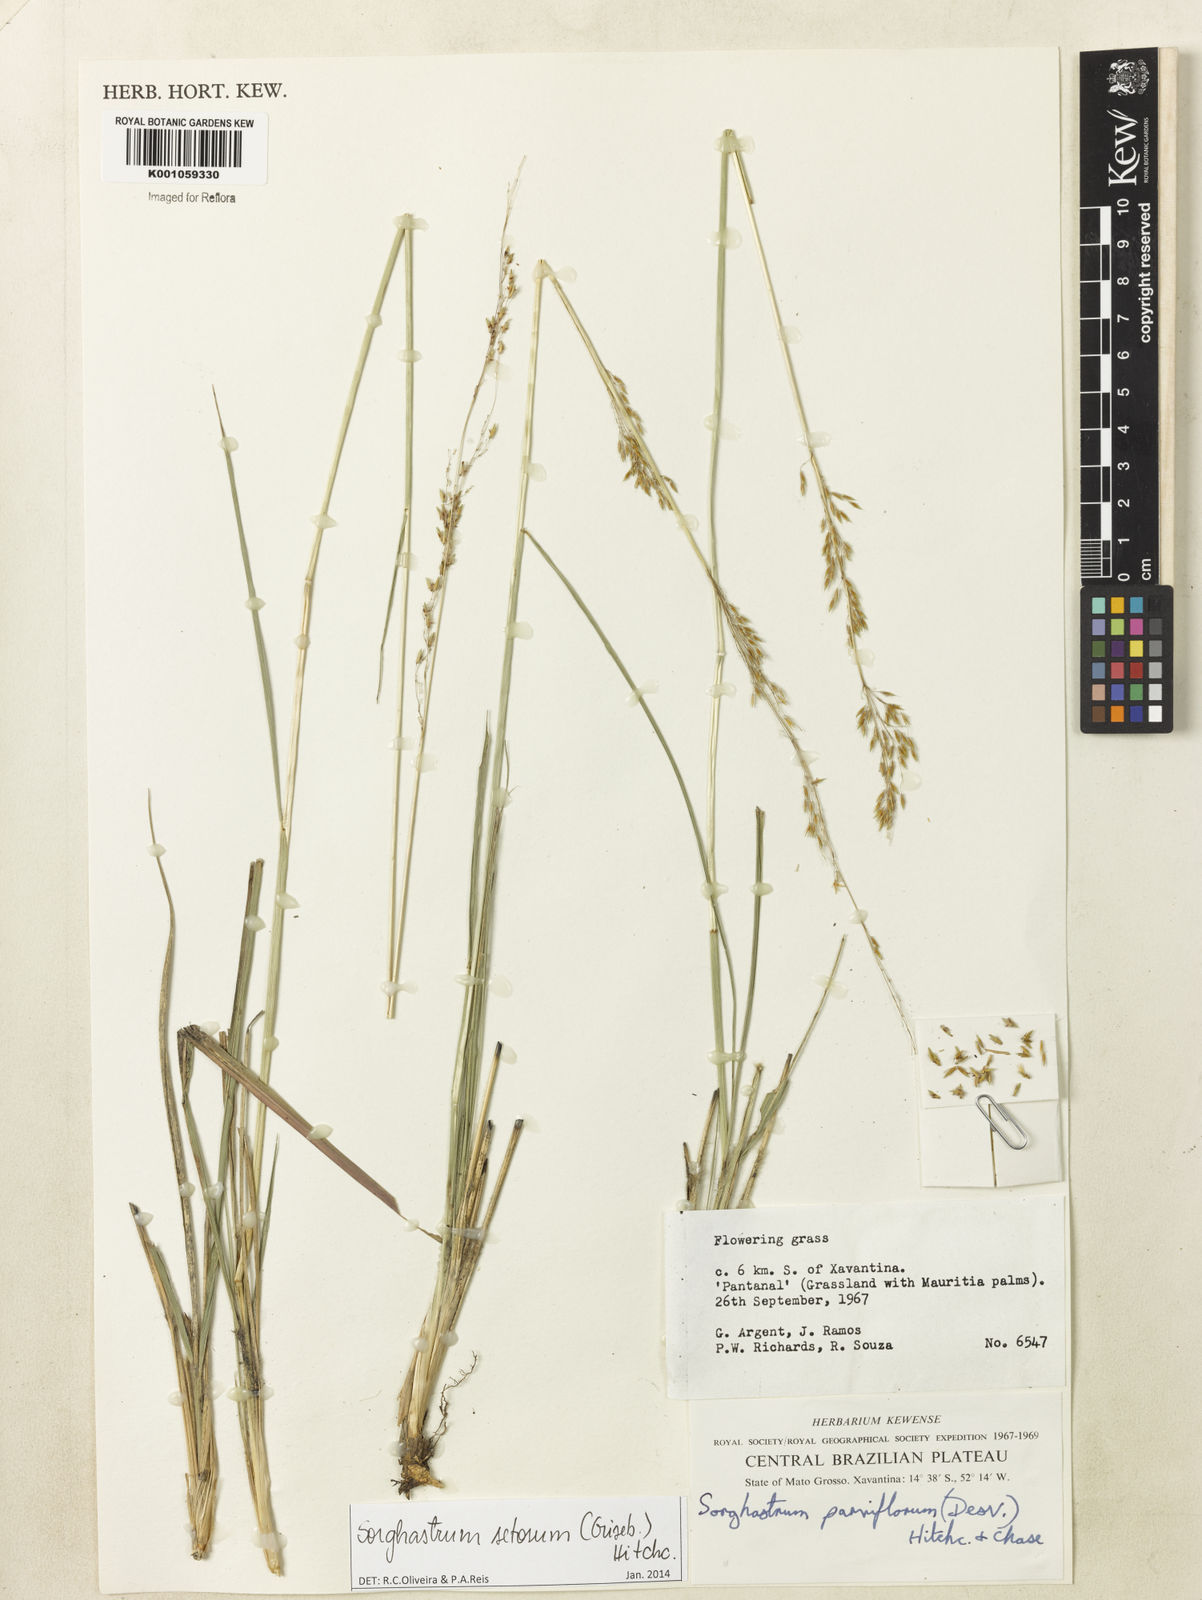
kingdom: Plantae
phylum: Tracheophyta
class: Liliopsida
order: Poales
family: Poaceae
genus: Sorghastrum
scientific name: Sorghastrum setosum
